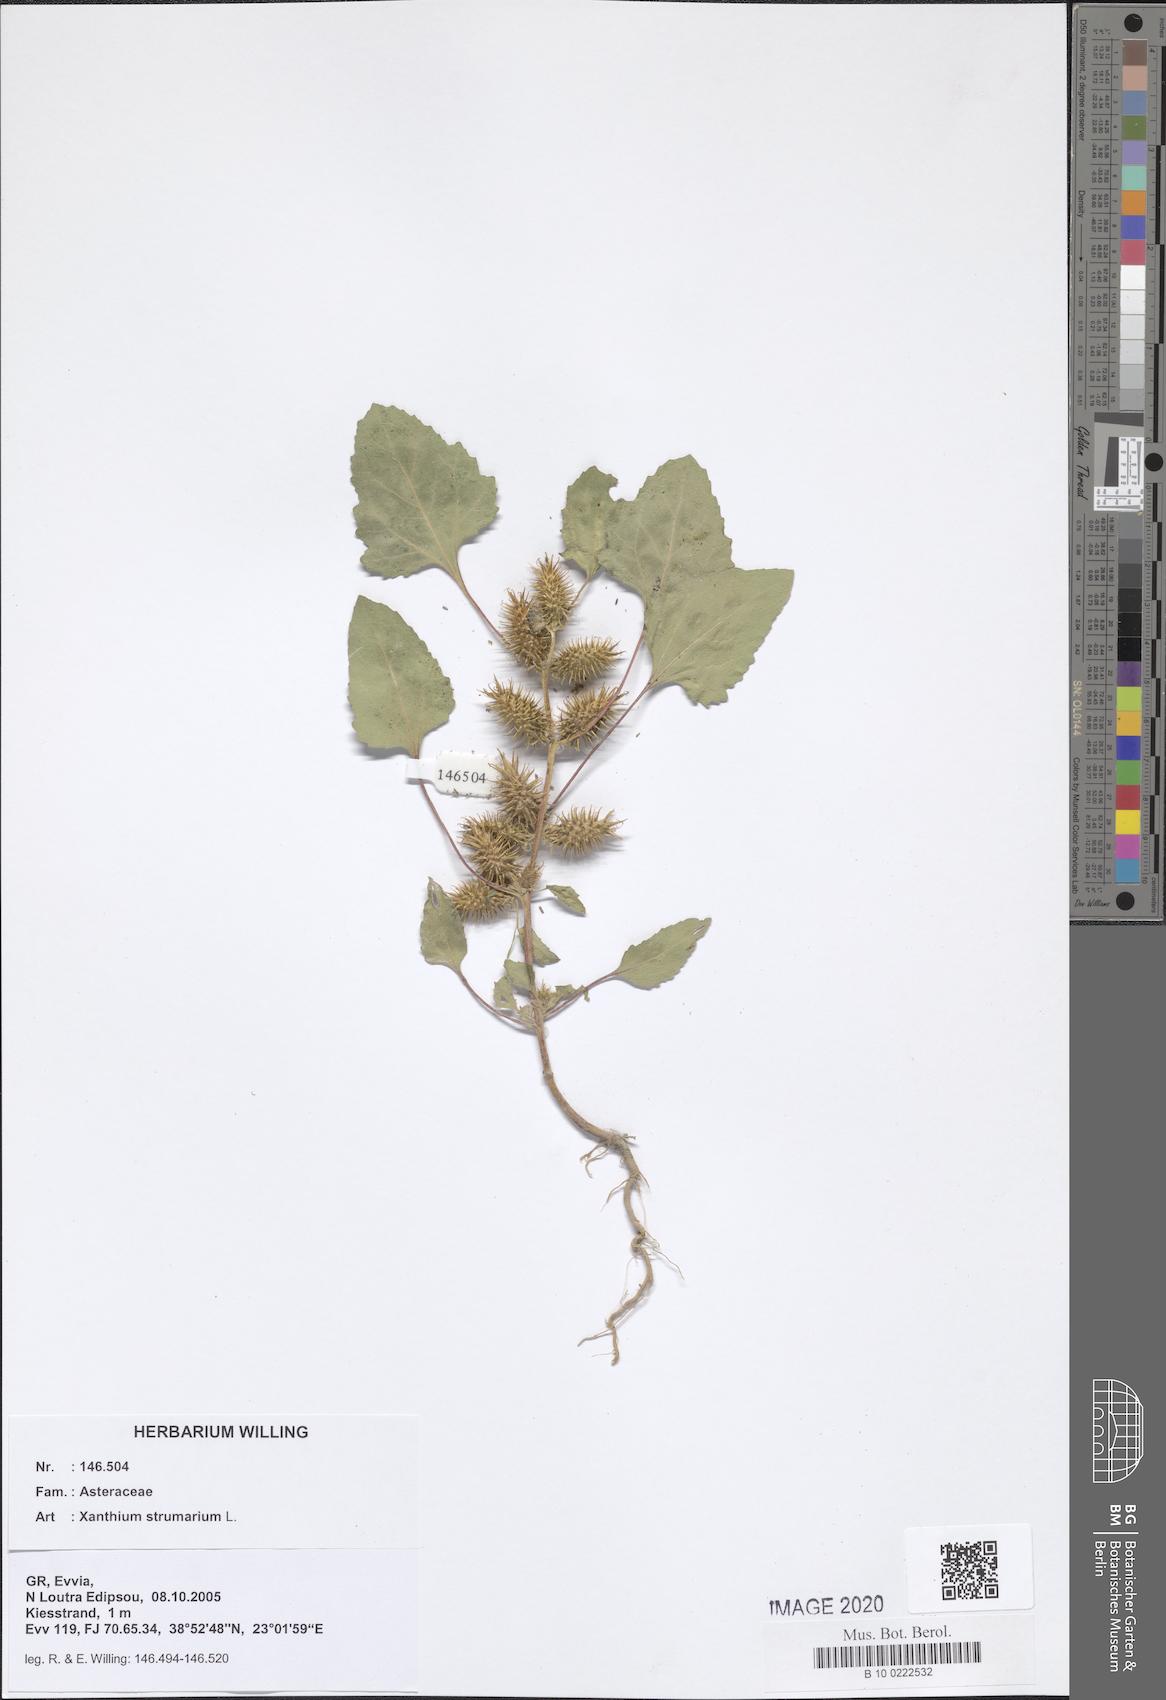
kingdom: Plantae
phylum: Tracheophyta
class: Magnoliopsida
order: Asterales
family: Asteraceae
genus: Xanthium
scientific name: Xanthium strumarium
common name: Rough cocklebur
